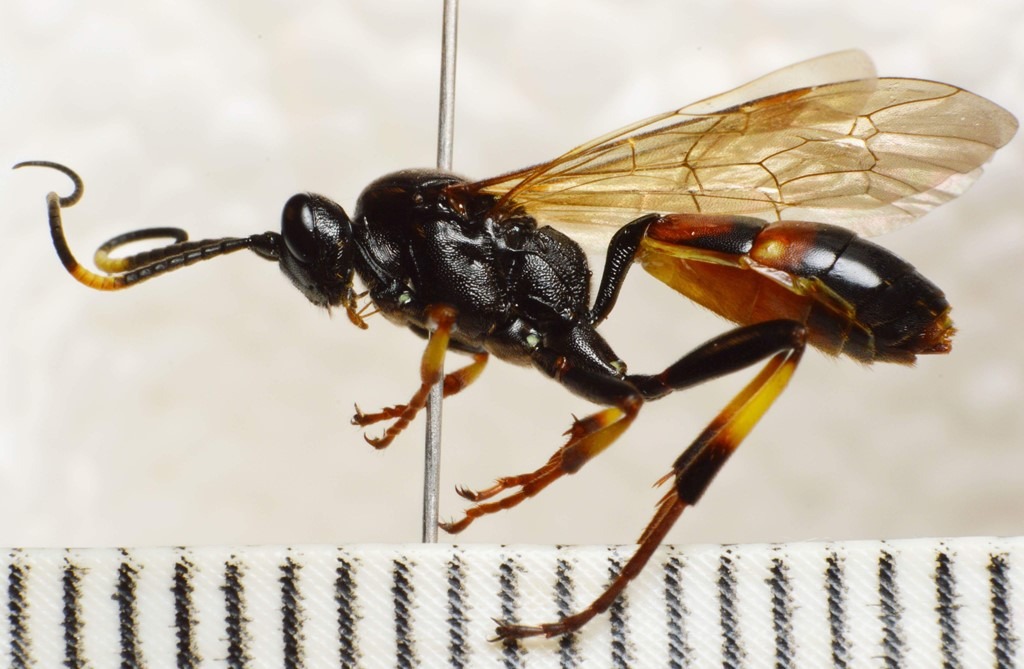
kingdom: Animalia
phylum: Arthropoda
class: Insecta
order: Hymenoptera
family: Ichneumonidae
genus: Diphyus
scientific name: Diphyus palliatorius
